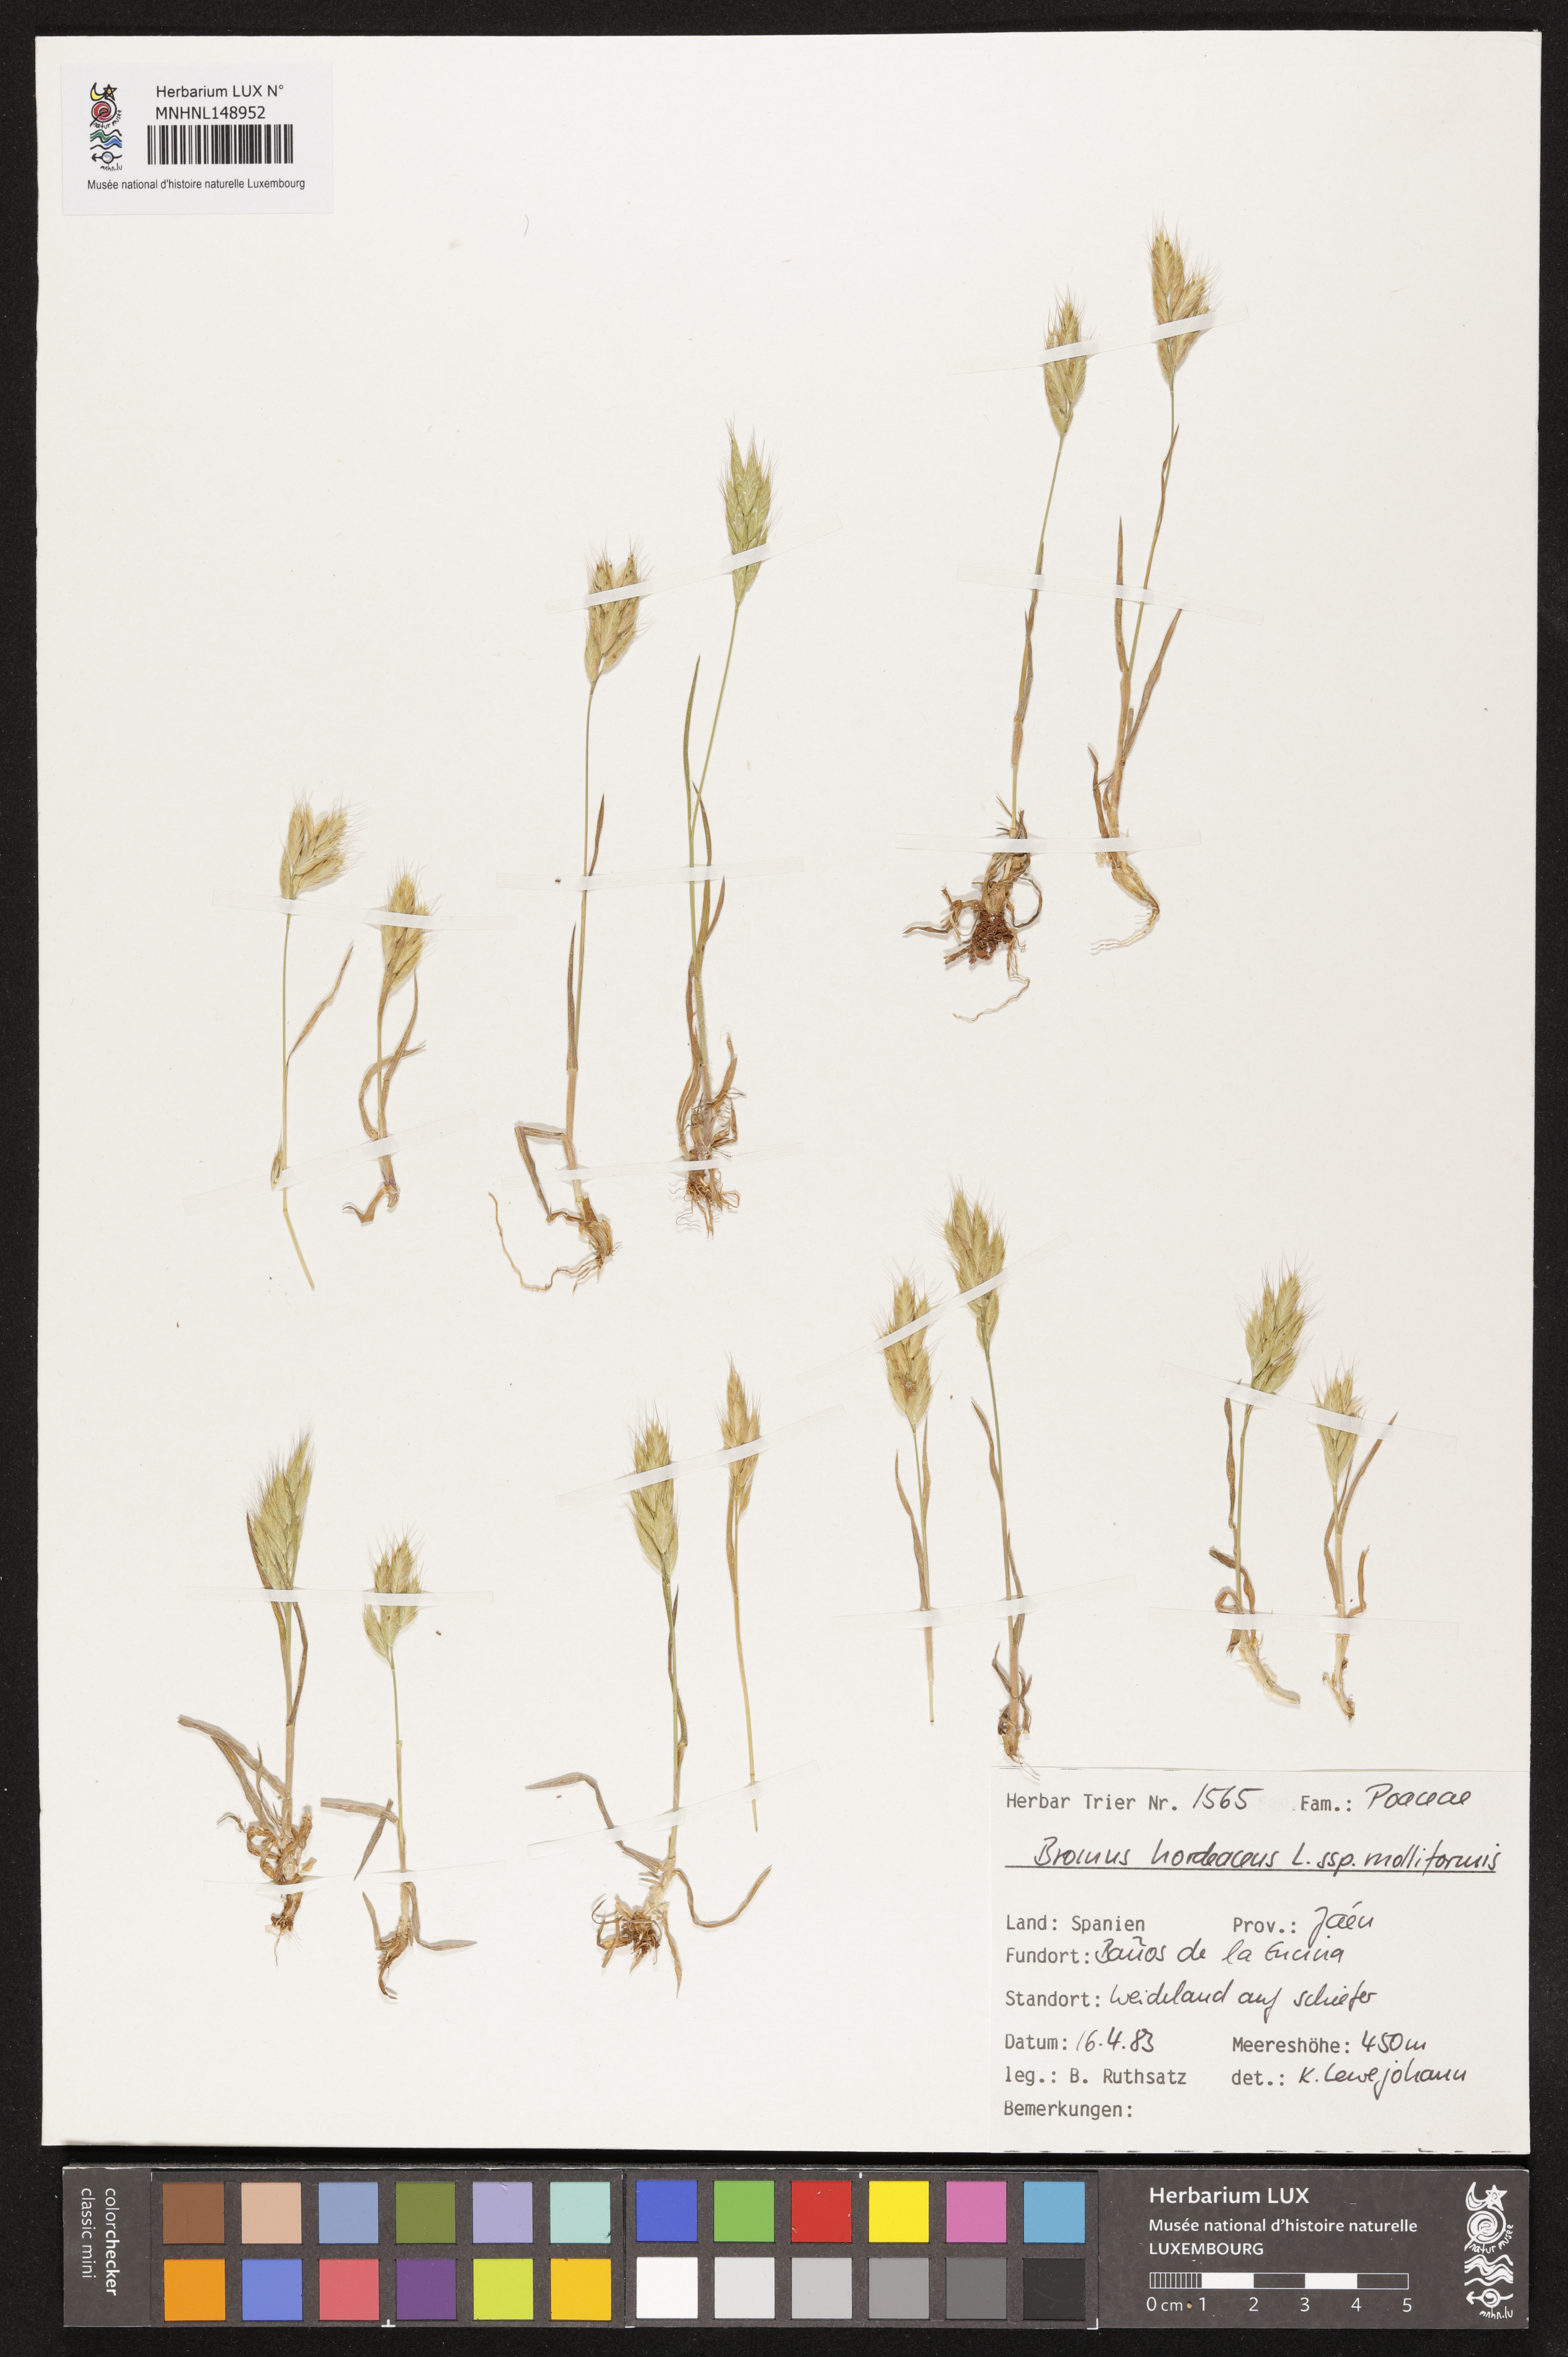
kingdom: Plantae
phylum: Tracheophyta
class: Liliopsida
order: Poales
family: Poaceae
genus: Bromus
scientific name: Bromus hordeaceus
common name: Soft brome
